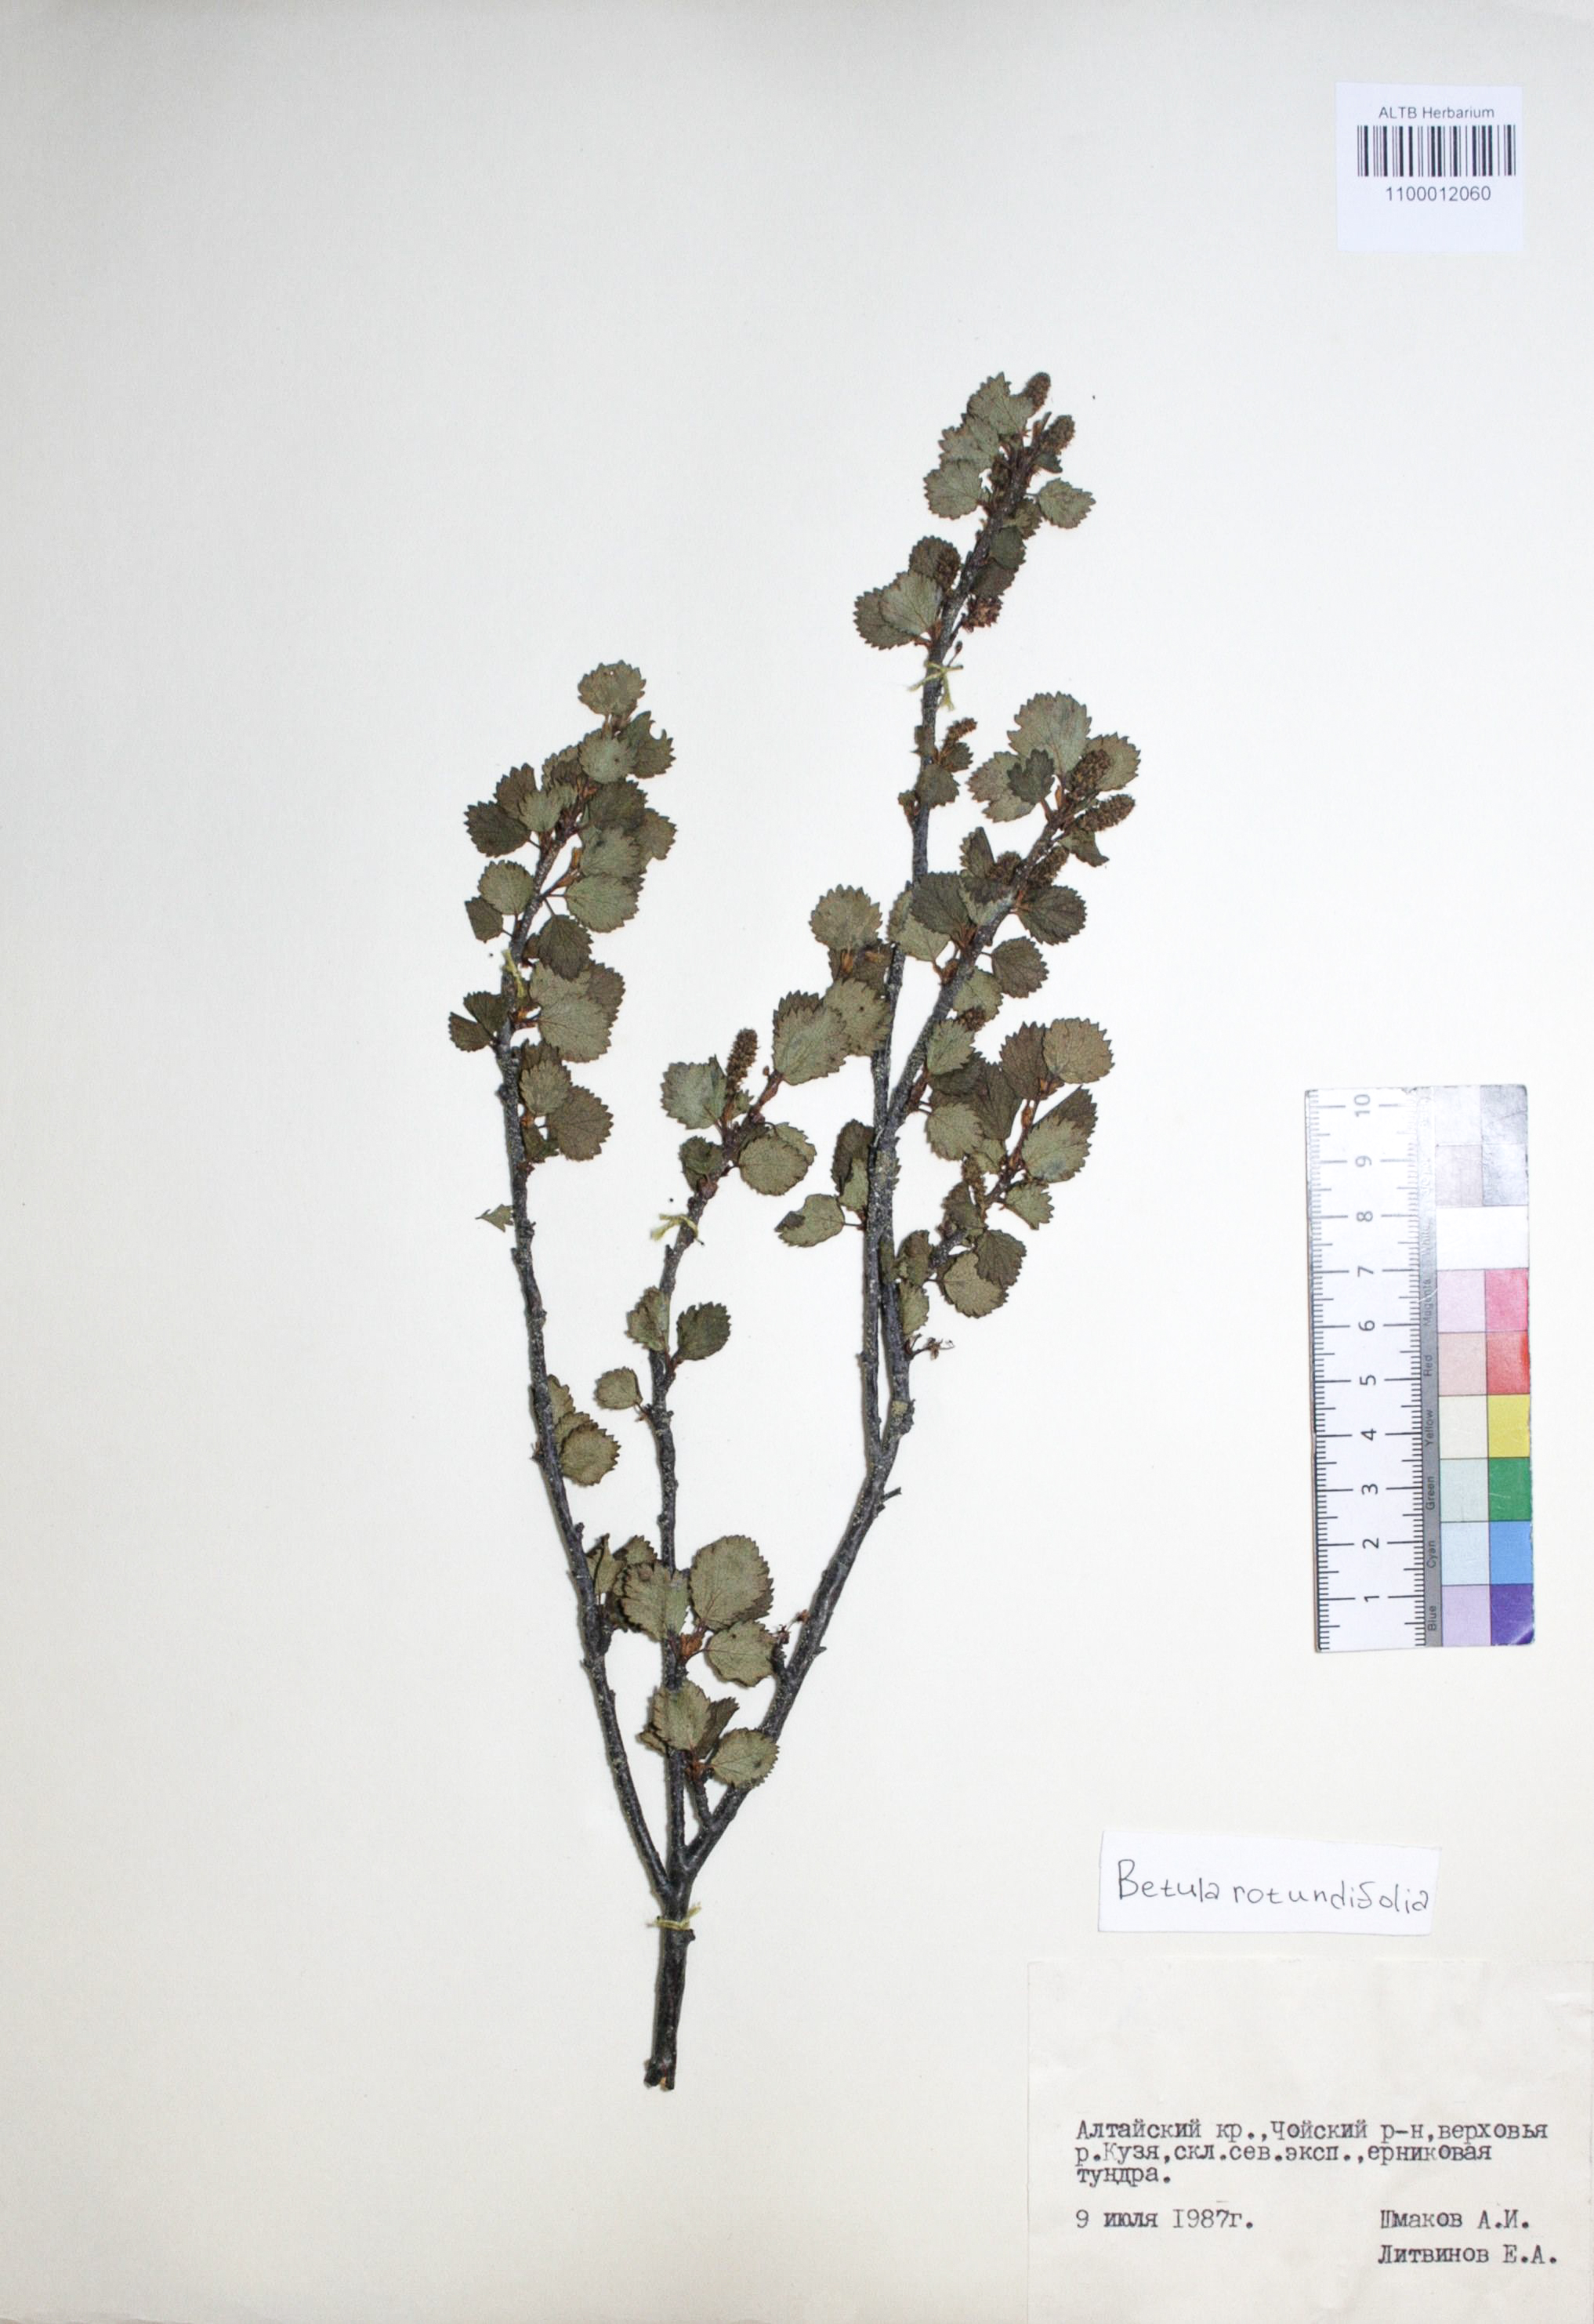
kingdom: Plantae
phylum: Tracheophyta
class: Magnoliopsida
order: Fagales
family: Betulaceae
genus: Betula
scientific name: Betula glandulosa
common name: Dwarf birch
